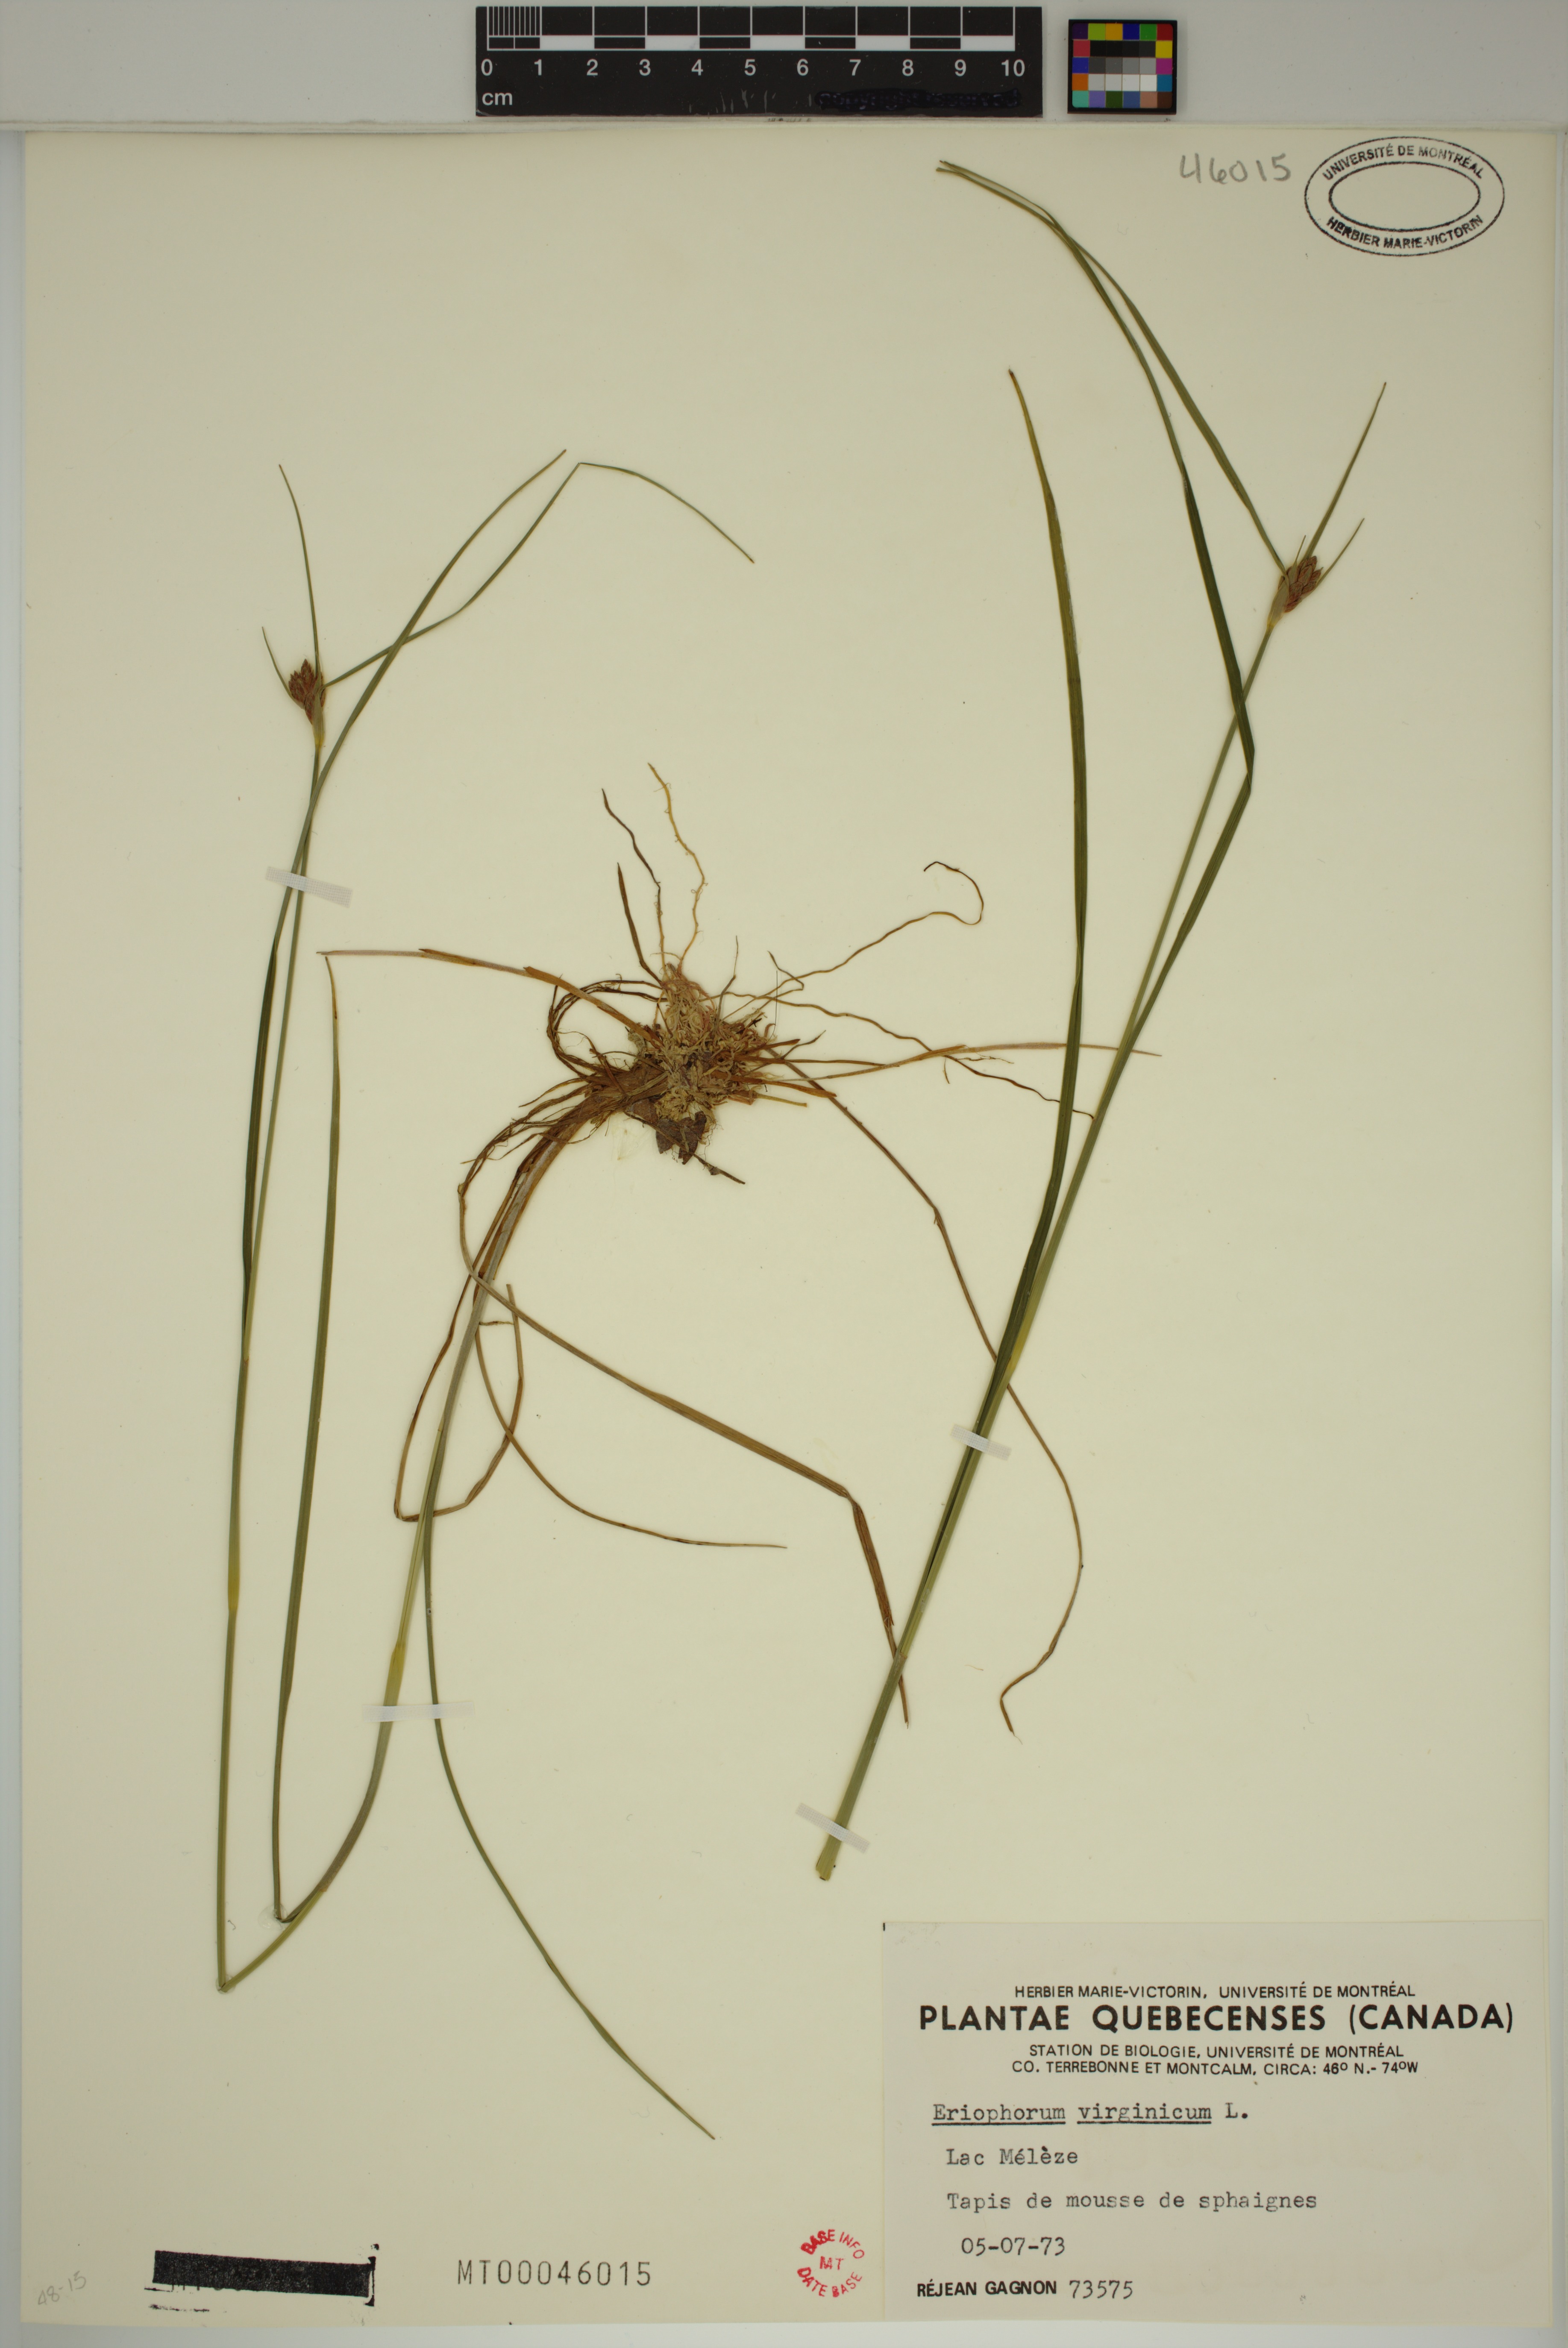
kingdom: Plantae
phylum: Tracheophyta
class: Liliopsida
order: Poales
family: Cyperaceae
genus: Eriophorum
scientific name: Eriophorum virginicum
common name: Tawny cottongrass
